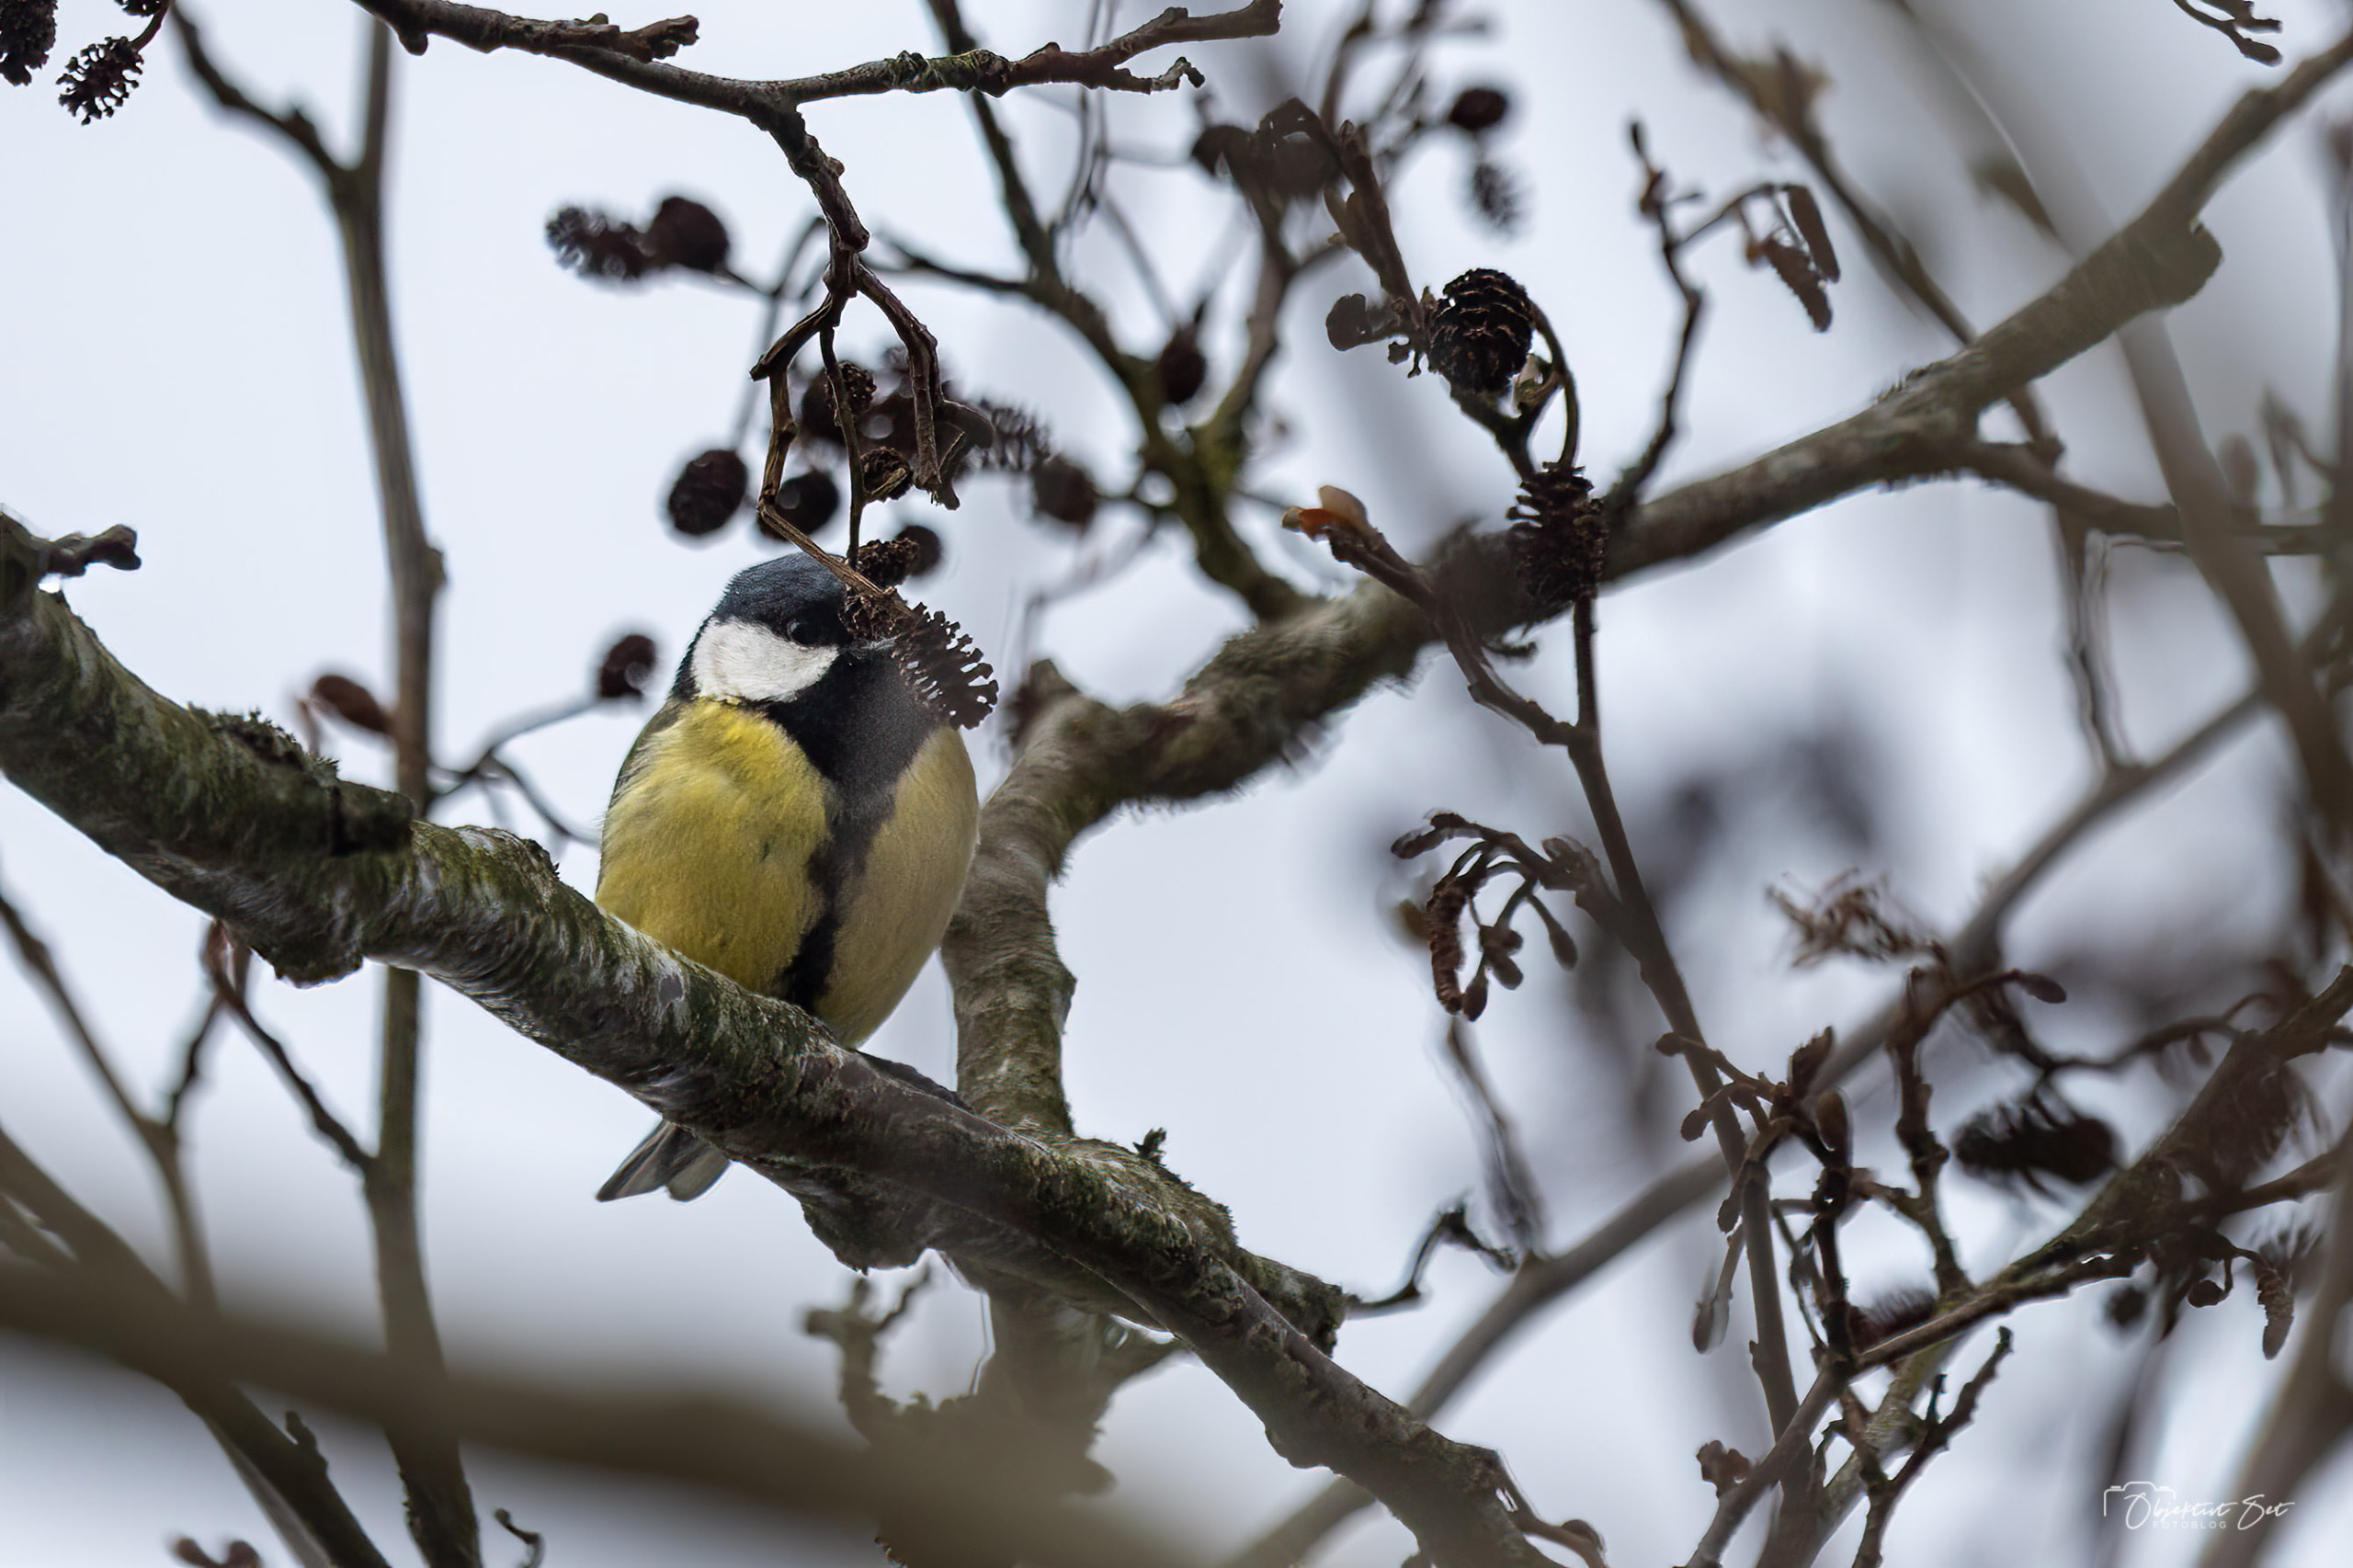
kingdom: Animalia
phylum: Chordata
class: Aves
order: Passeriformes
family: Paridae
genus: Parus
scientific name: Parus major
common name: Musvit
